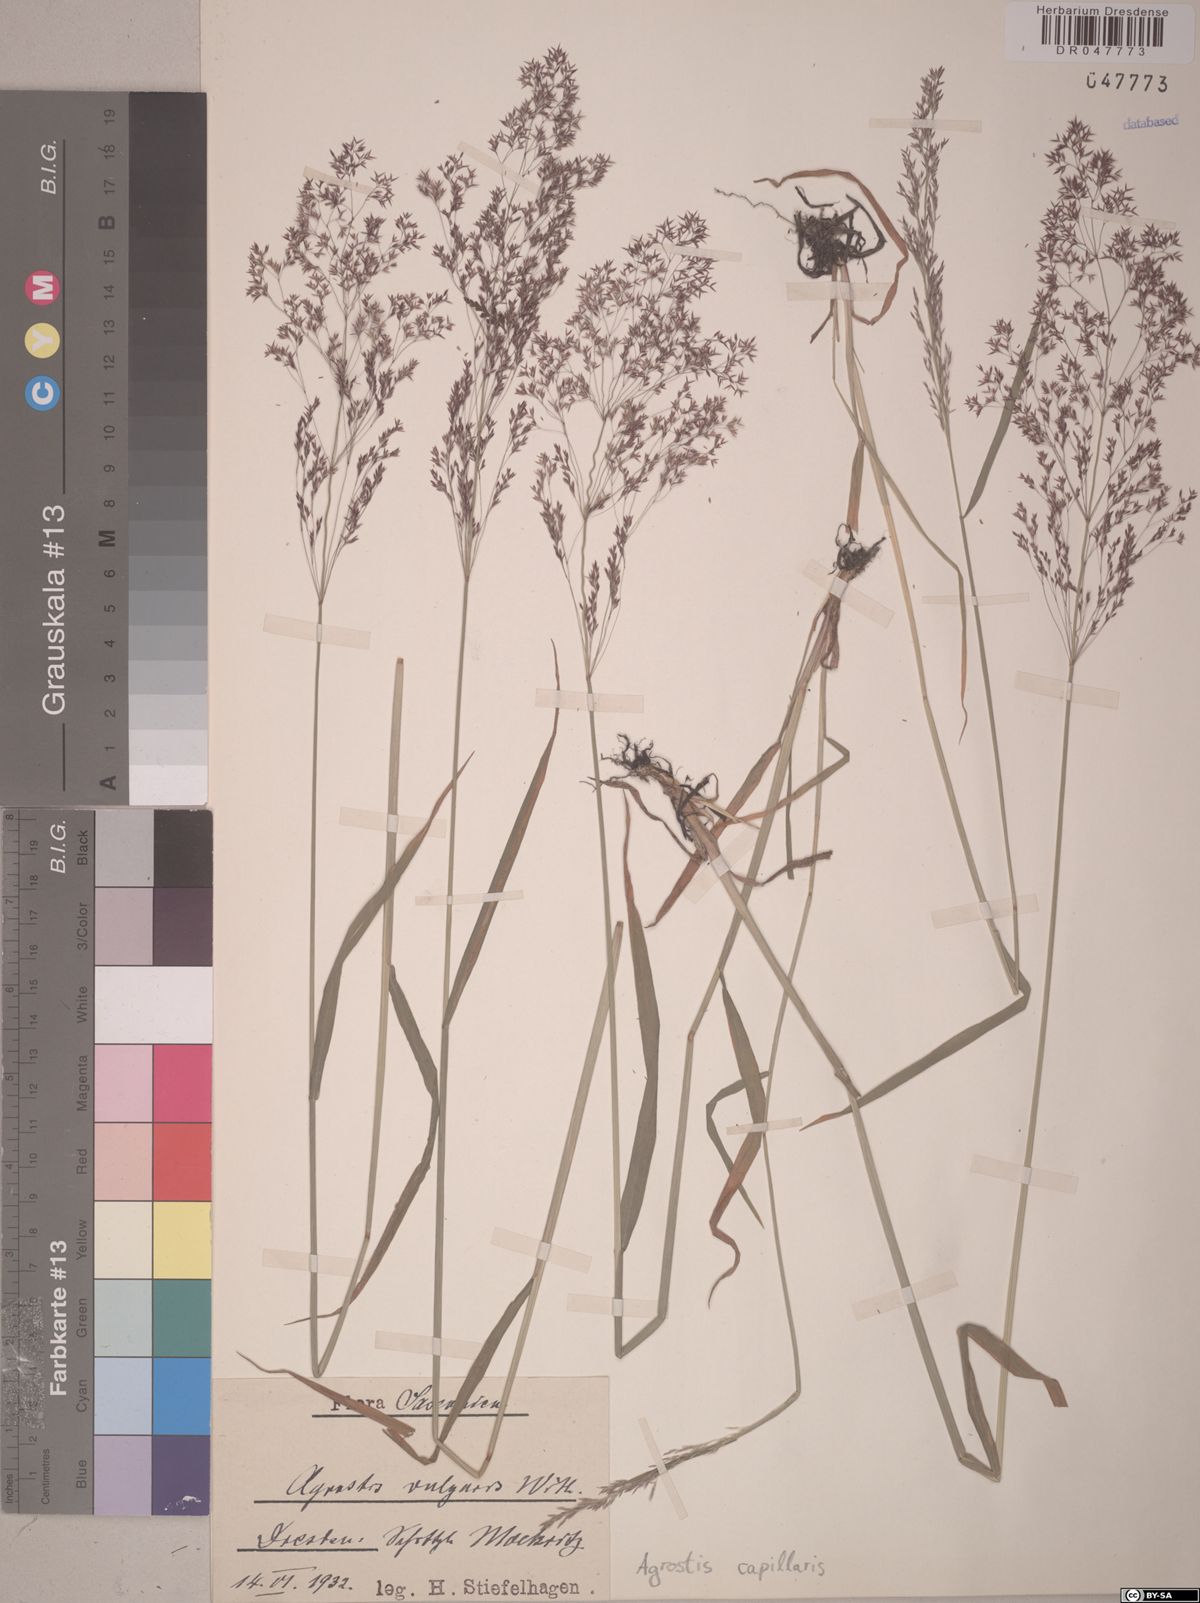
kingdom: Plantae
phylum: Tracheophyta
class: Liliopsida
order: Poales
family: Poaceae
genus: Agrostis
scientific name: Agrostis capillaris
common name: Colonial bentgrass
